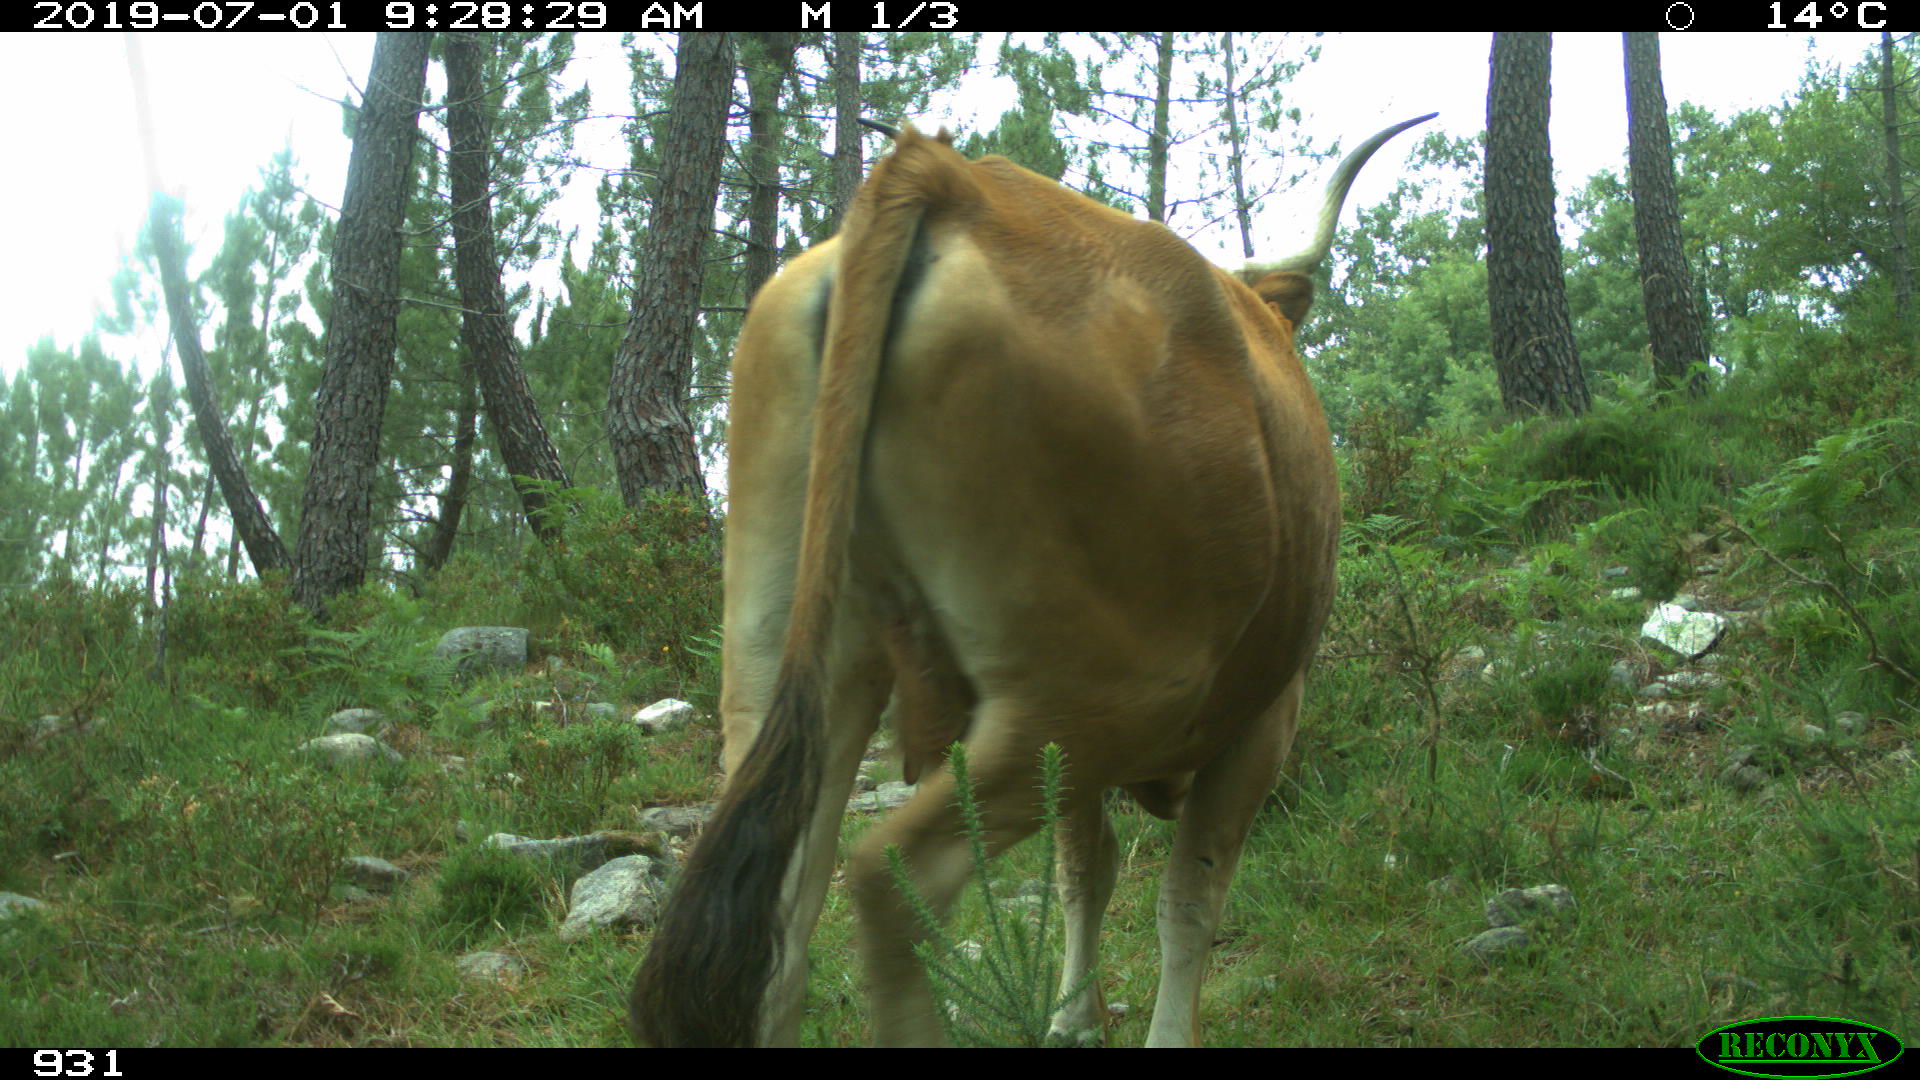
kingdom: Animalia
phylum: Chordata
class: Mammalia
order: Artiodactyla
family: Bovidae
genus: Bos
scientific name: Bos taurus
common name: Domesticated cattle
